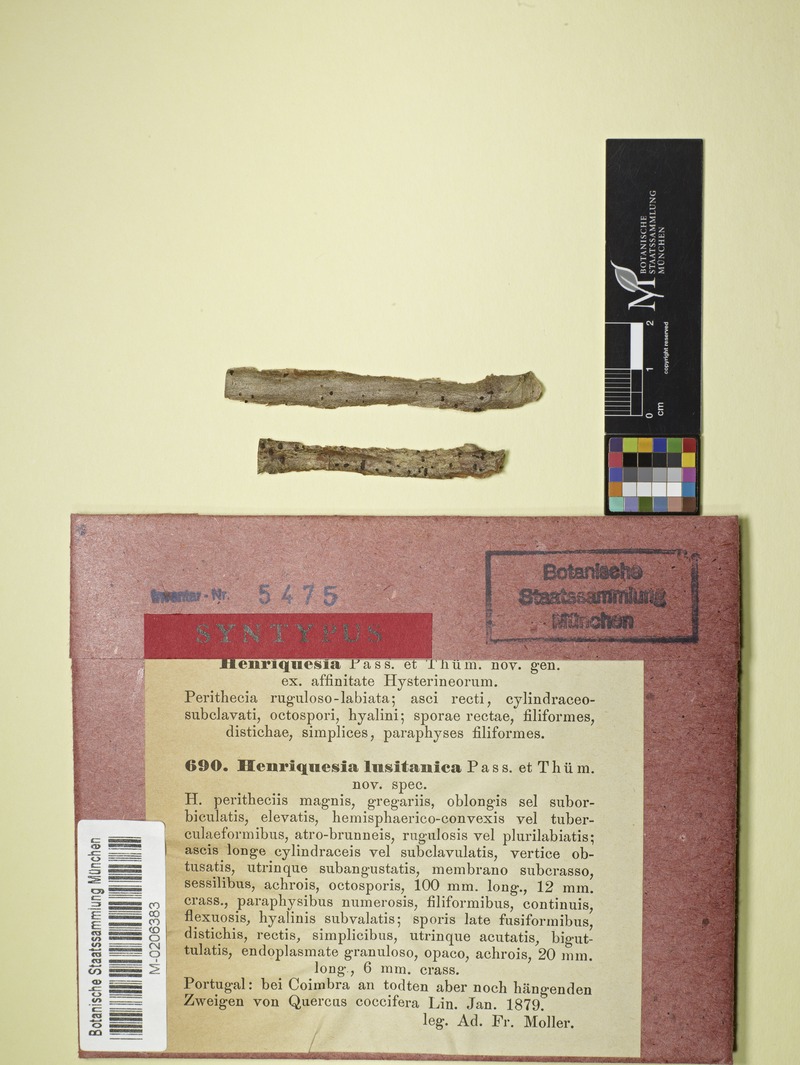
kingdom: Fungi
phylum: Ascomycota
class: Leotiomycetes
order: Rhytismatales
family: Ascodichaenaceae
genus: Delpinoina
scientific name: Delpinoina lusitanica
